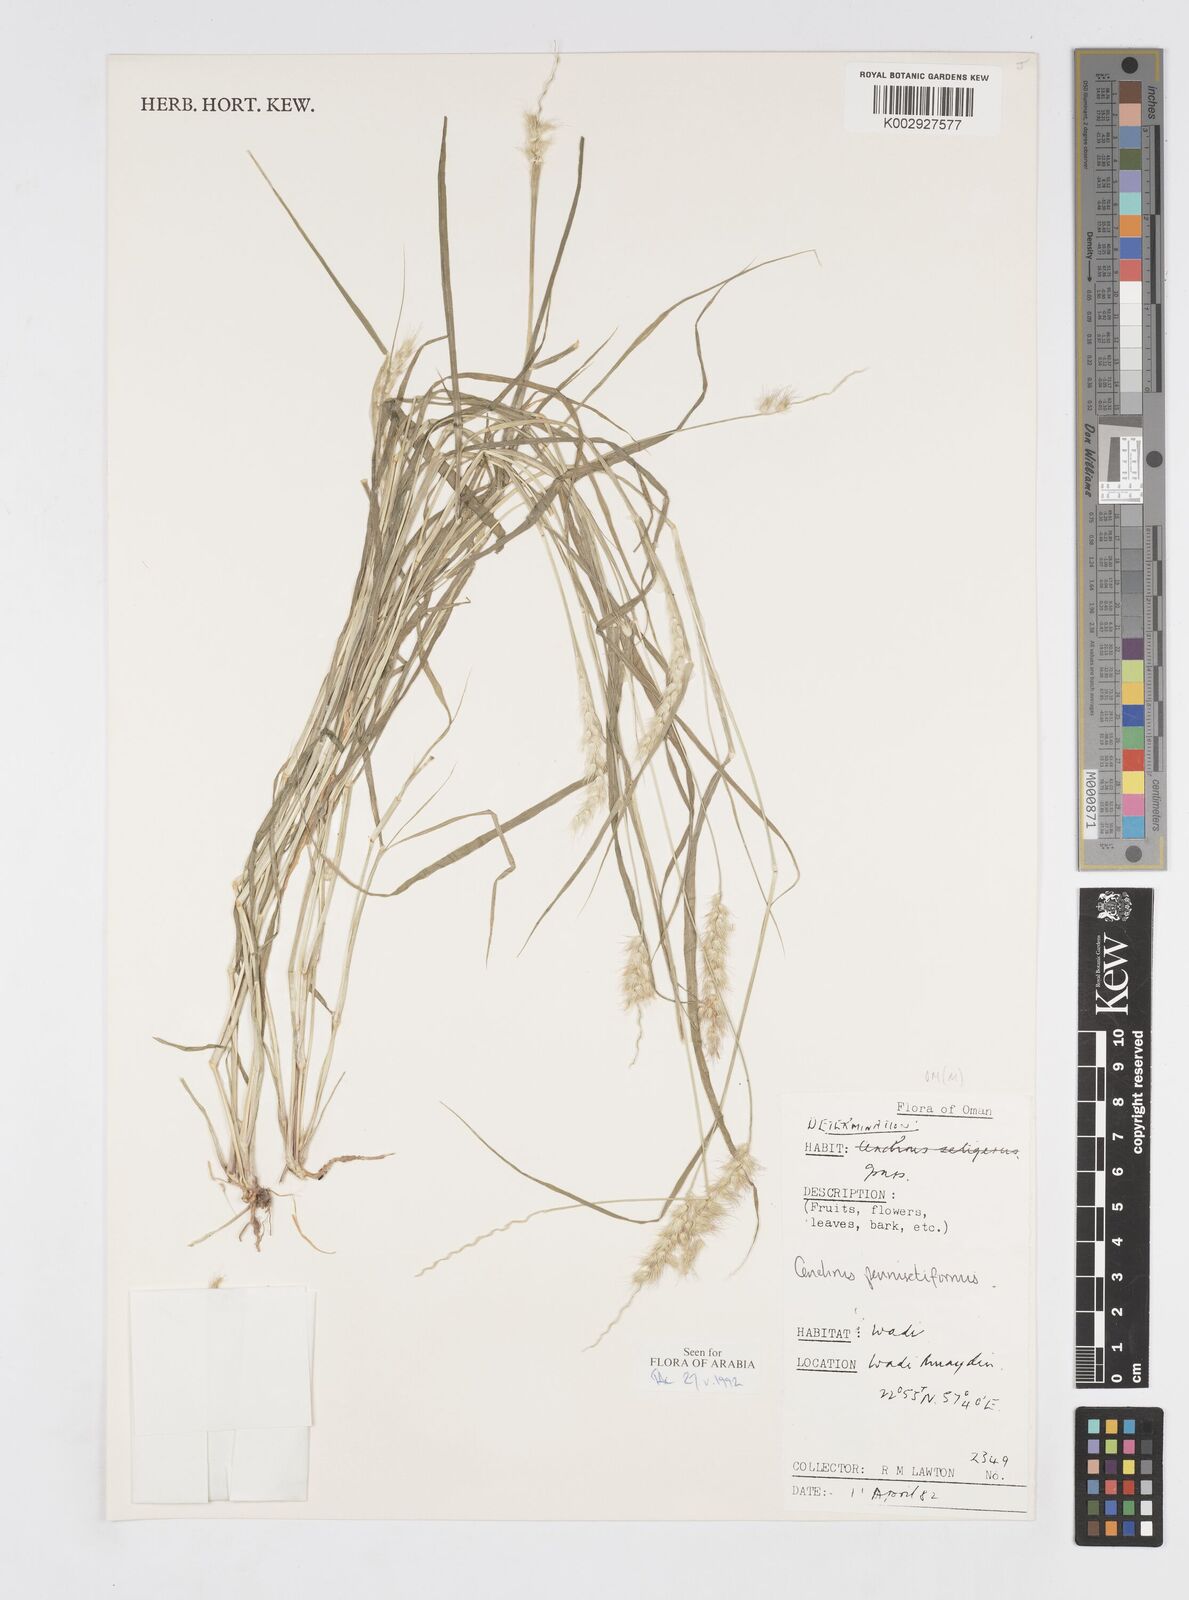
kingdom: Plantae
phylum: Tracheophyta
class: Liliopsida
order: Poales
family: Poaceae
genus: Cenchrus
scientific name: Cenchrus pennisetiformis
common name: Cloncurry
